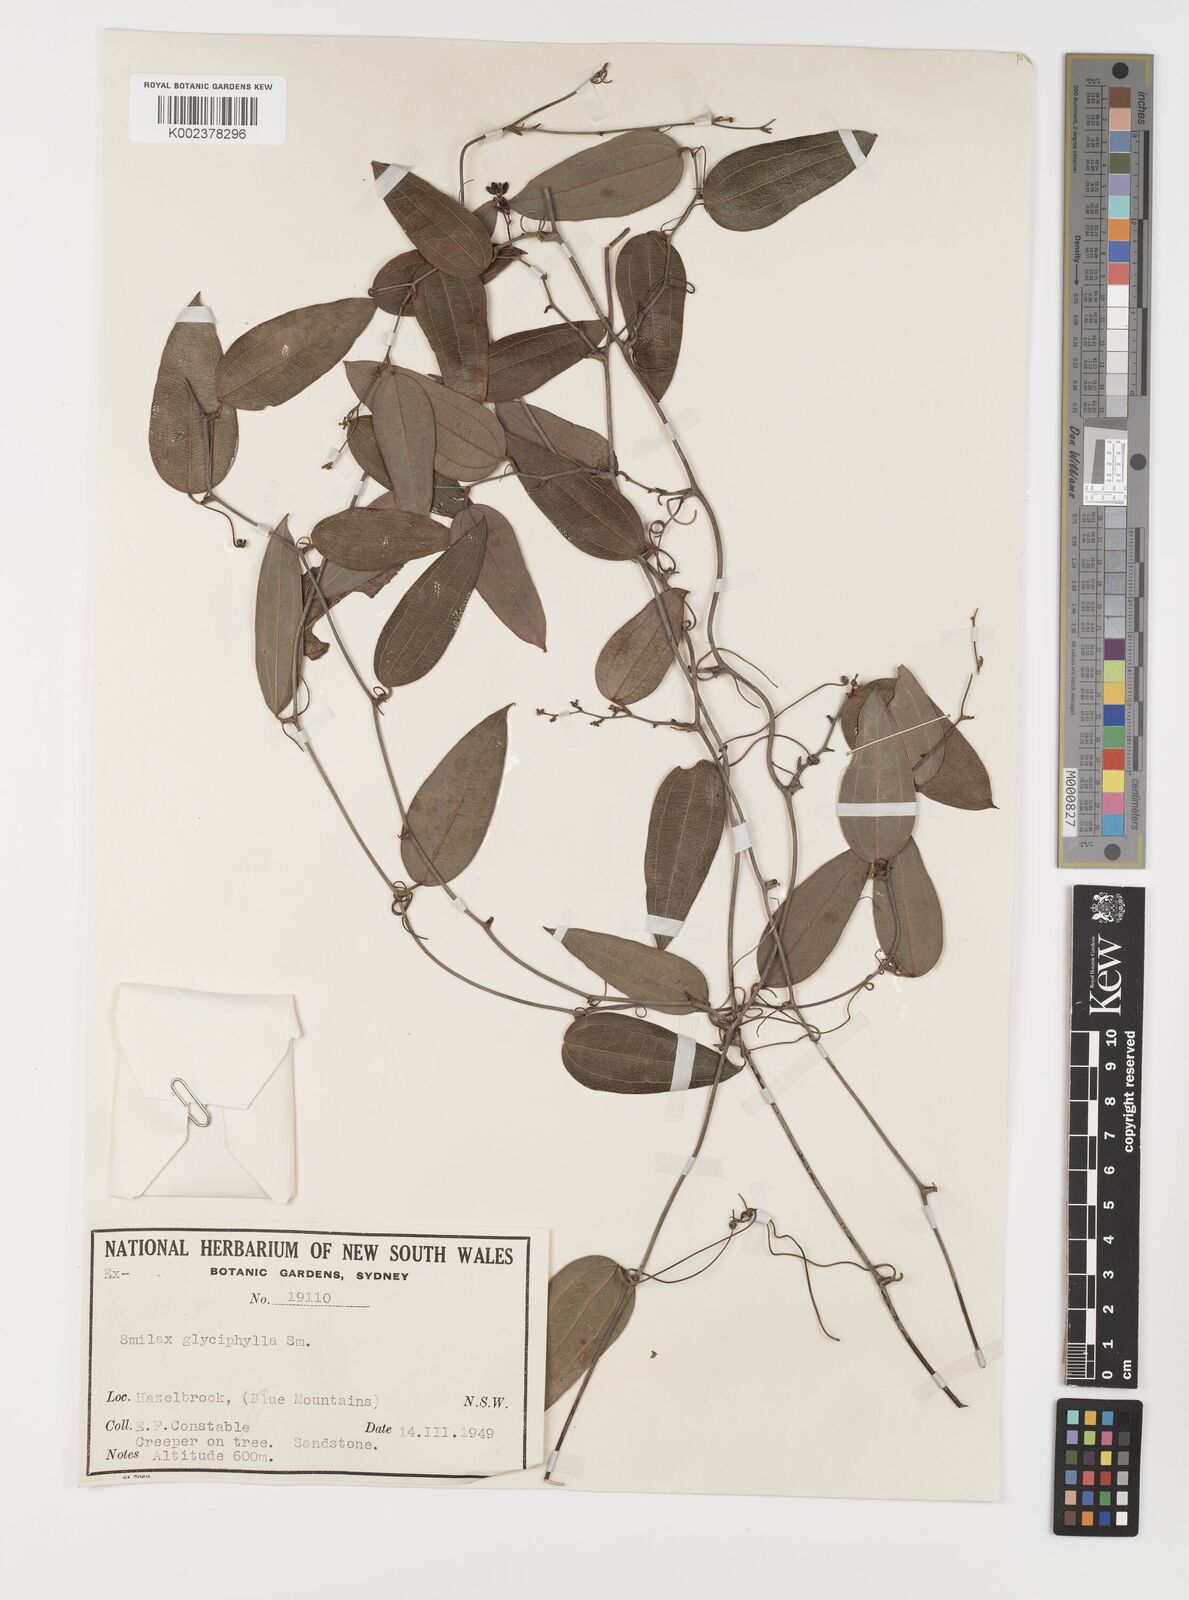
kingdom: Plantae
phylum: Tracheophyta
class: Liliopsida
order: Liliales
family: Smilacaceae
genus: Smilax
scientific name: Smilax
